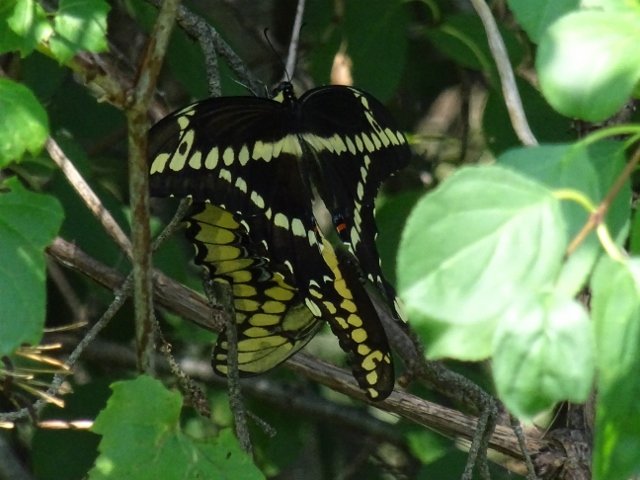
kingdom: Animalia
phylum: Arthropoda
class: Insecta
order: Lepidoptera
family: Papilionidae
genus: Papilio
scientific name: Papilio cresphontes
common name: Eastern Giant Swallowtail
